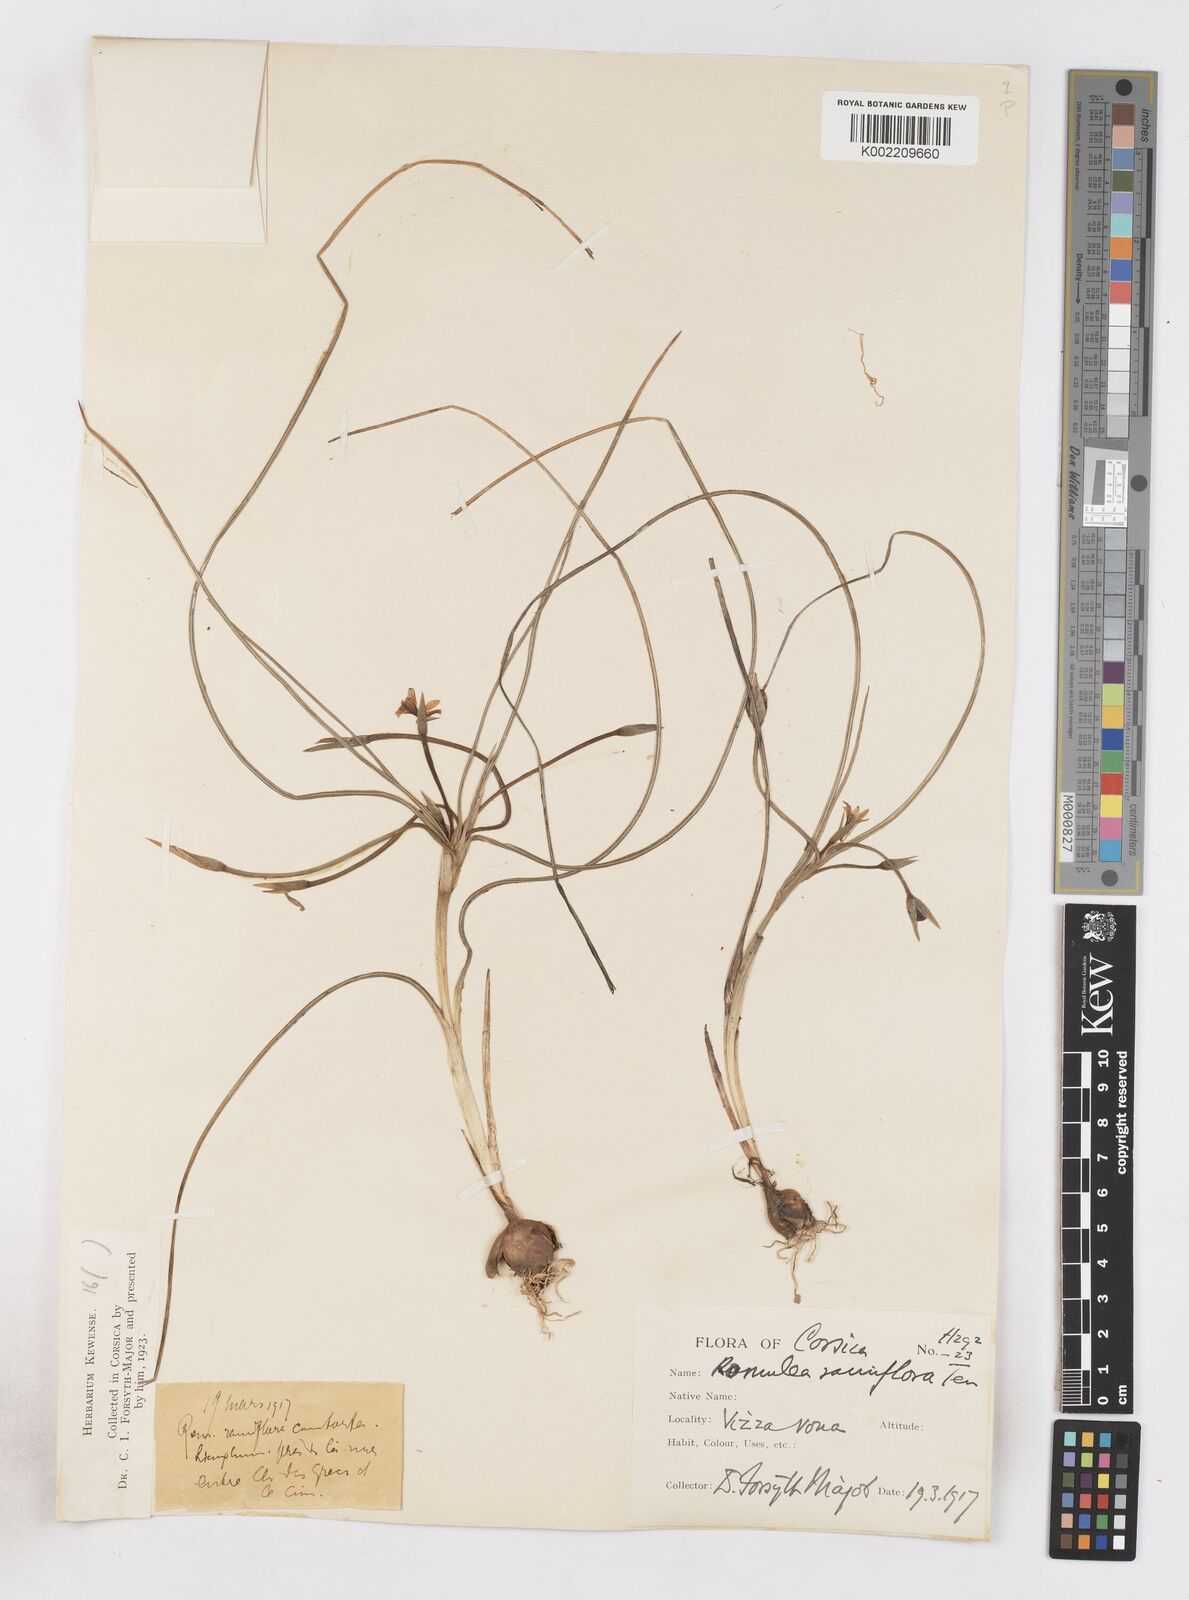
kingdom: Plantae
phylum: Tracheophyta
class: Liliopsida
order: Asparagales
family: Iridaceae
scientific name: Iridaceae
